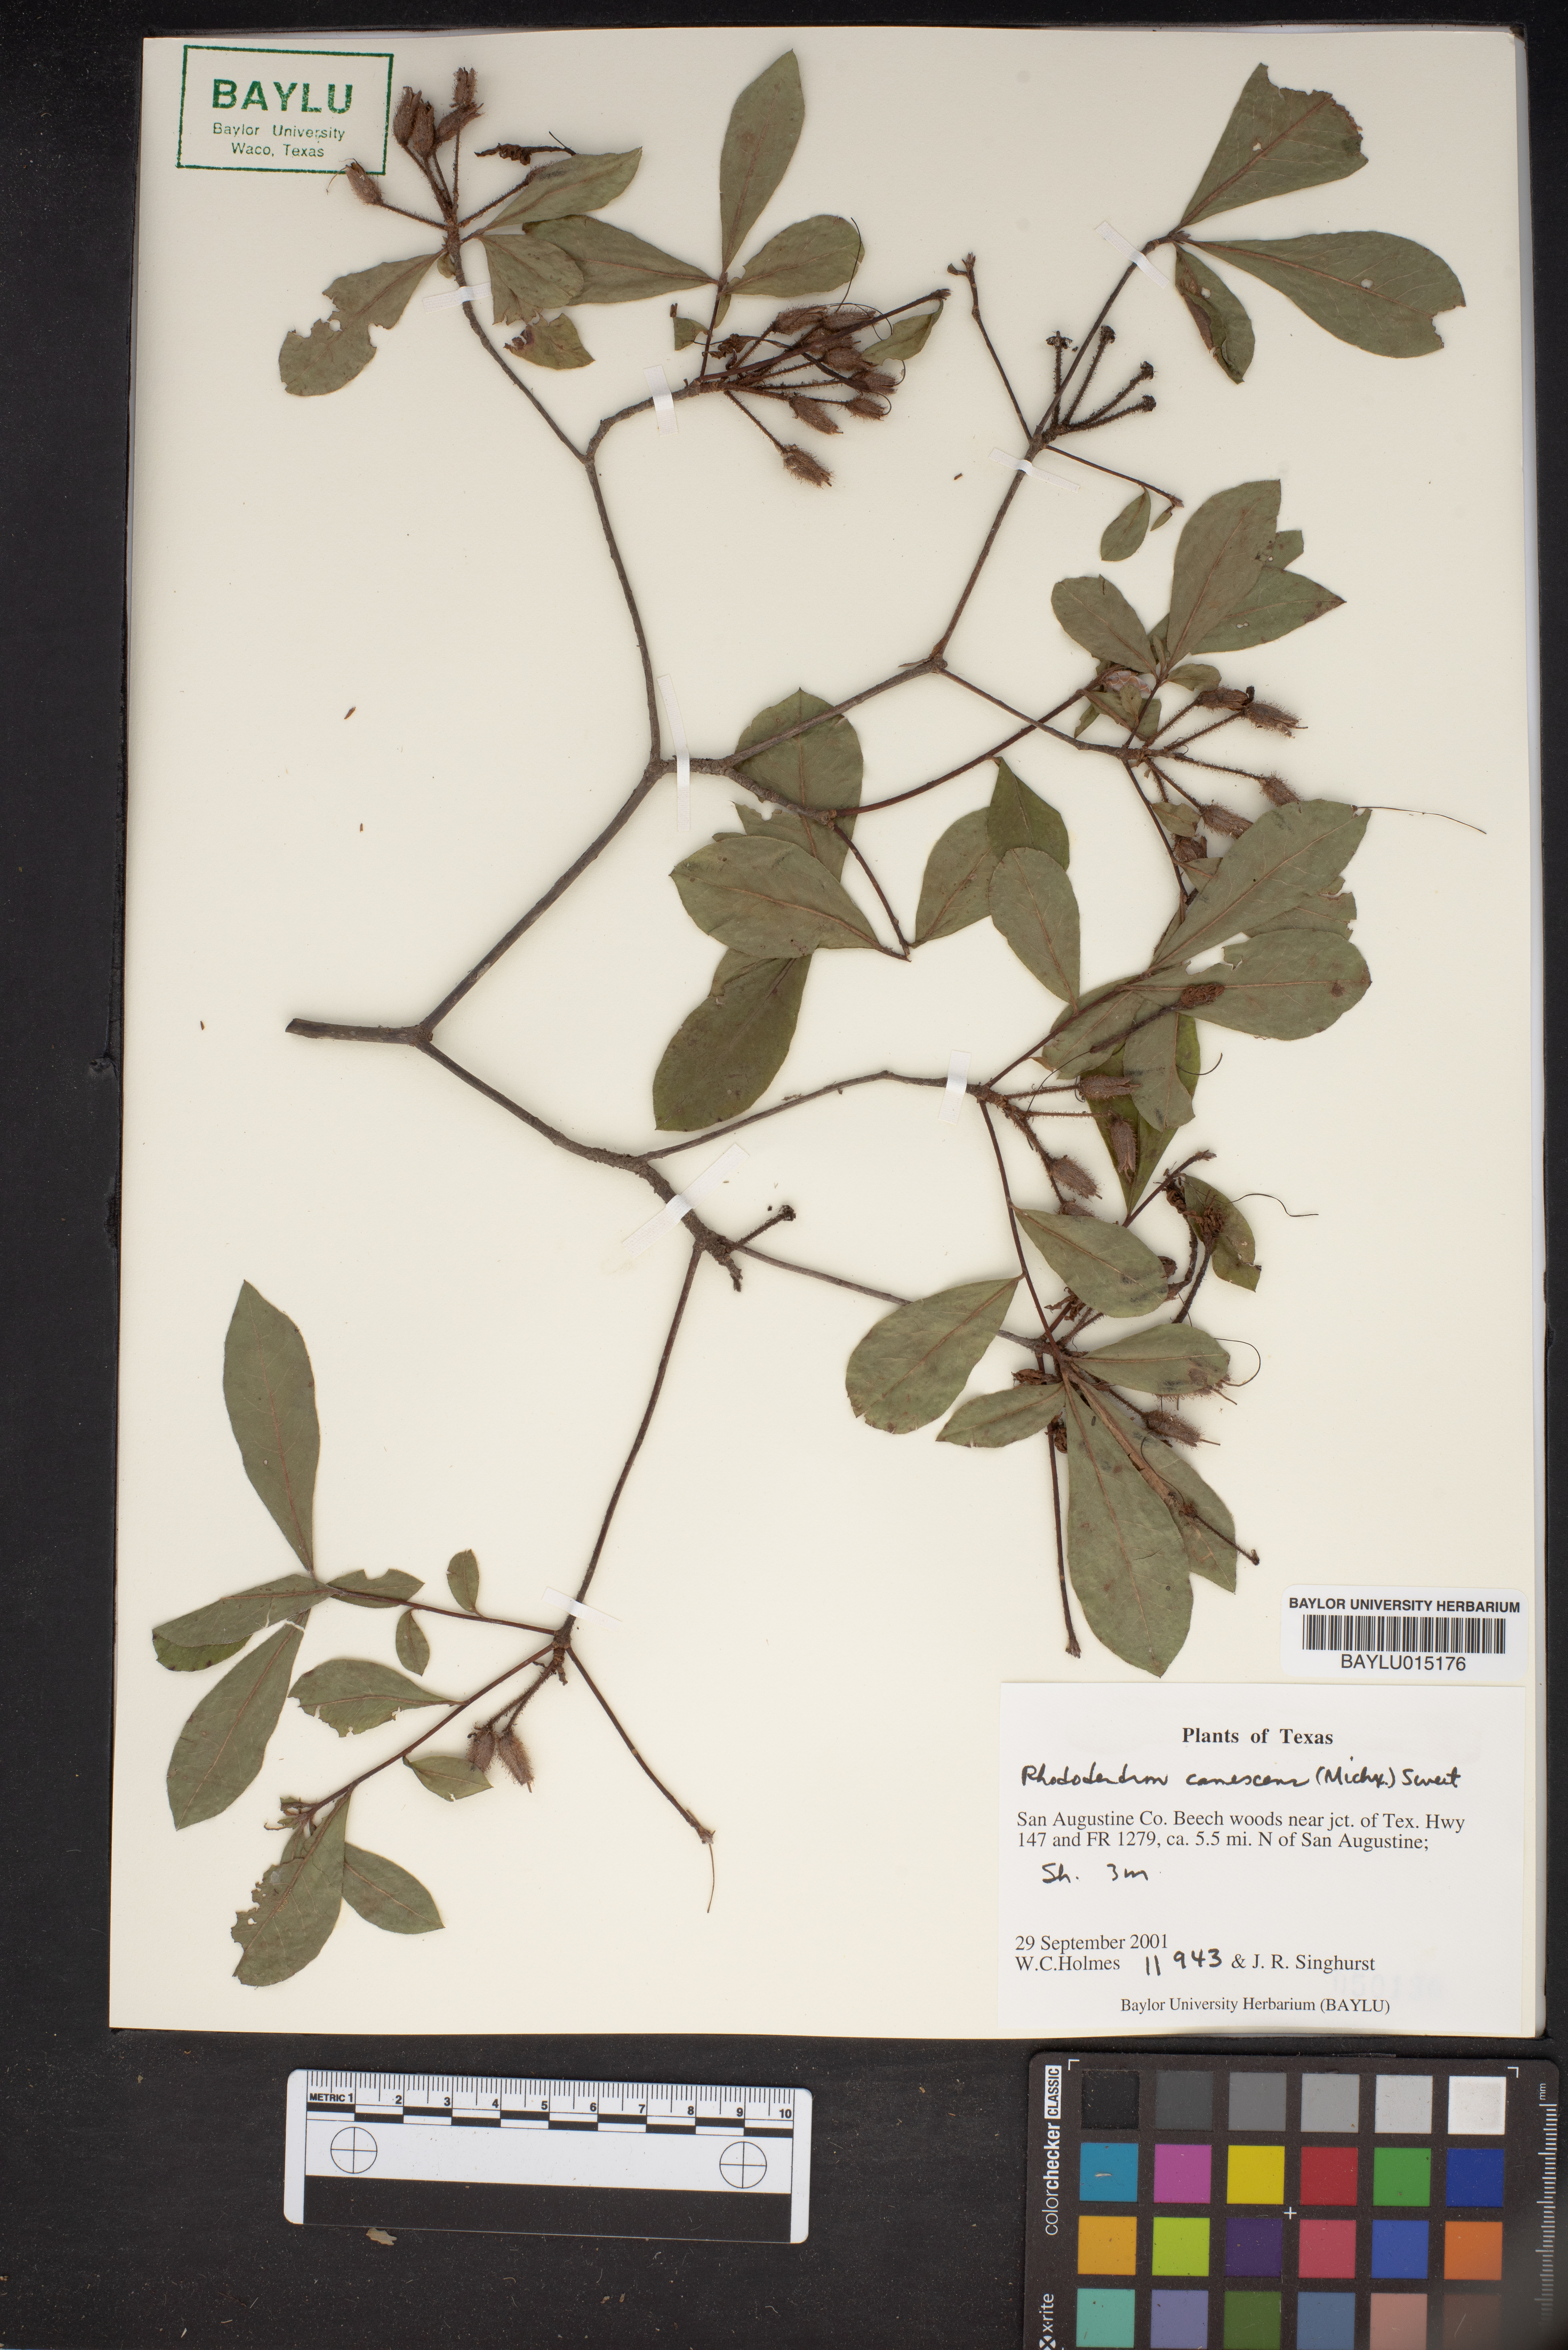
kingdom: Plantae
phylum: Tracheophyta
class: Magnoliopsida
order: Ericales
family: Ericaceae
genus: Rhododendron
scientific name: Rhododendron canescens
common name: Mountain azalea
